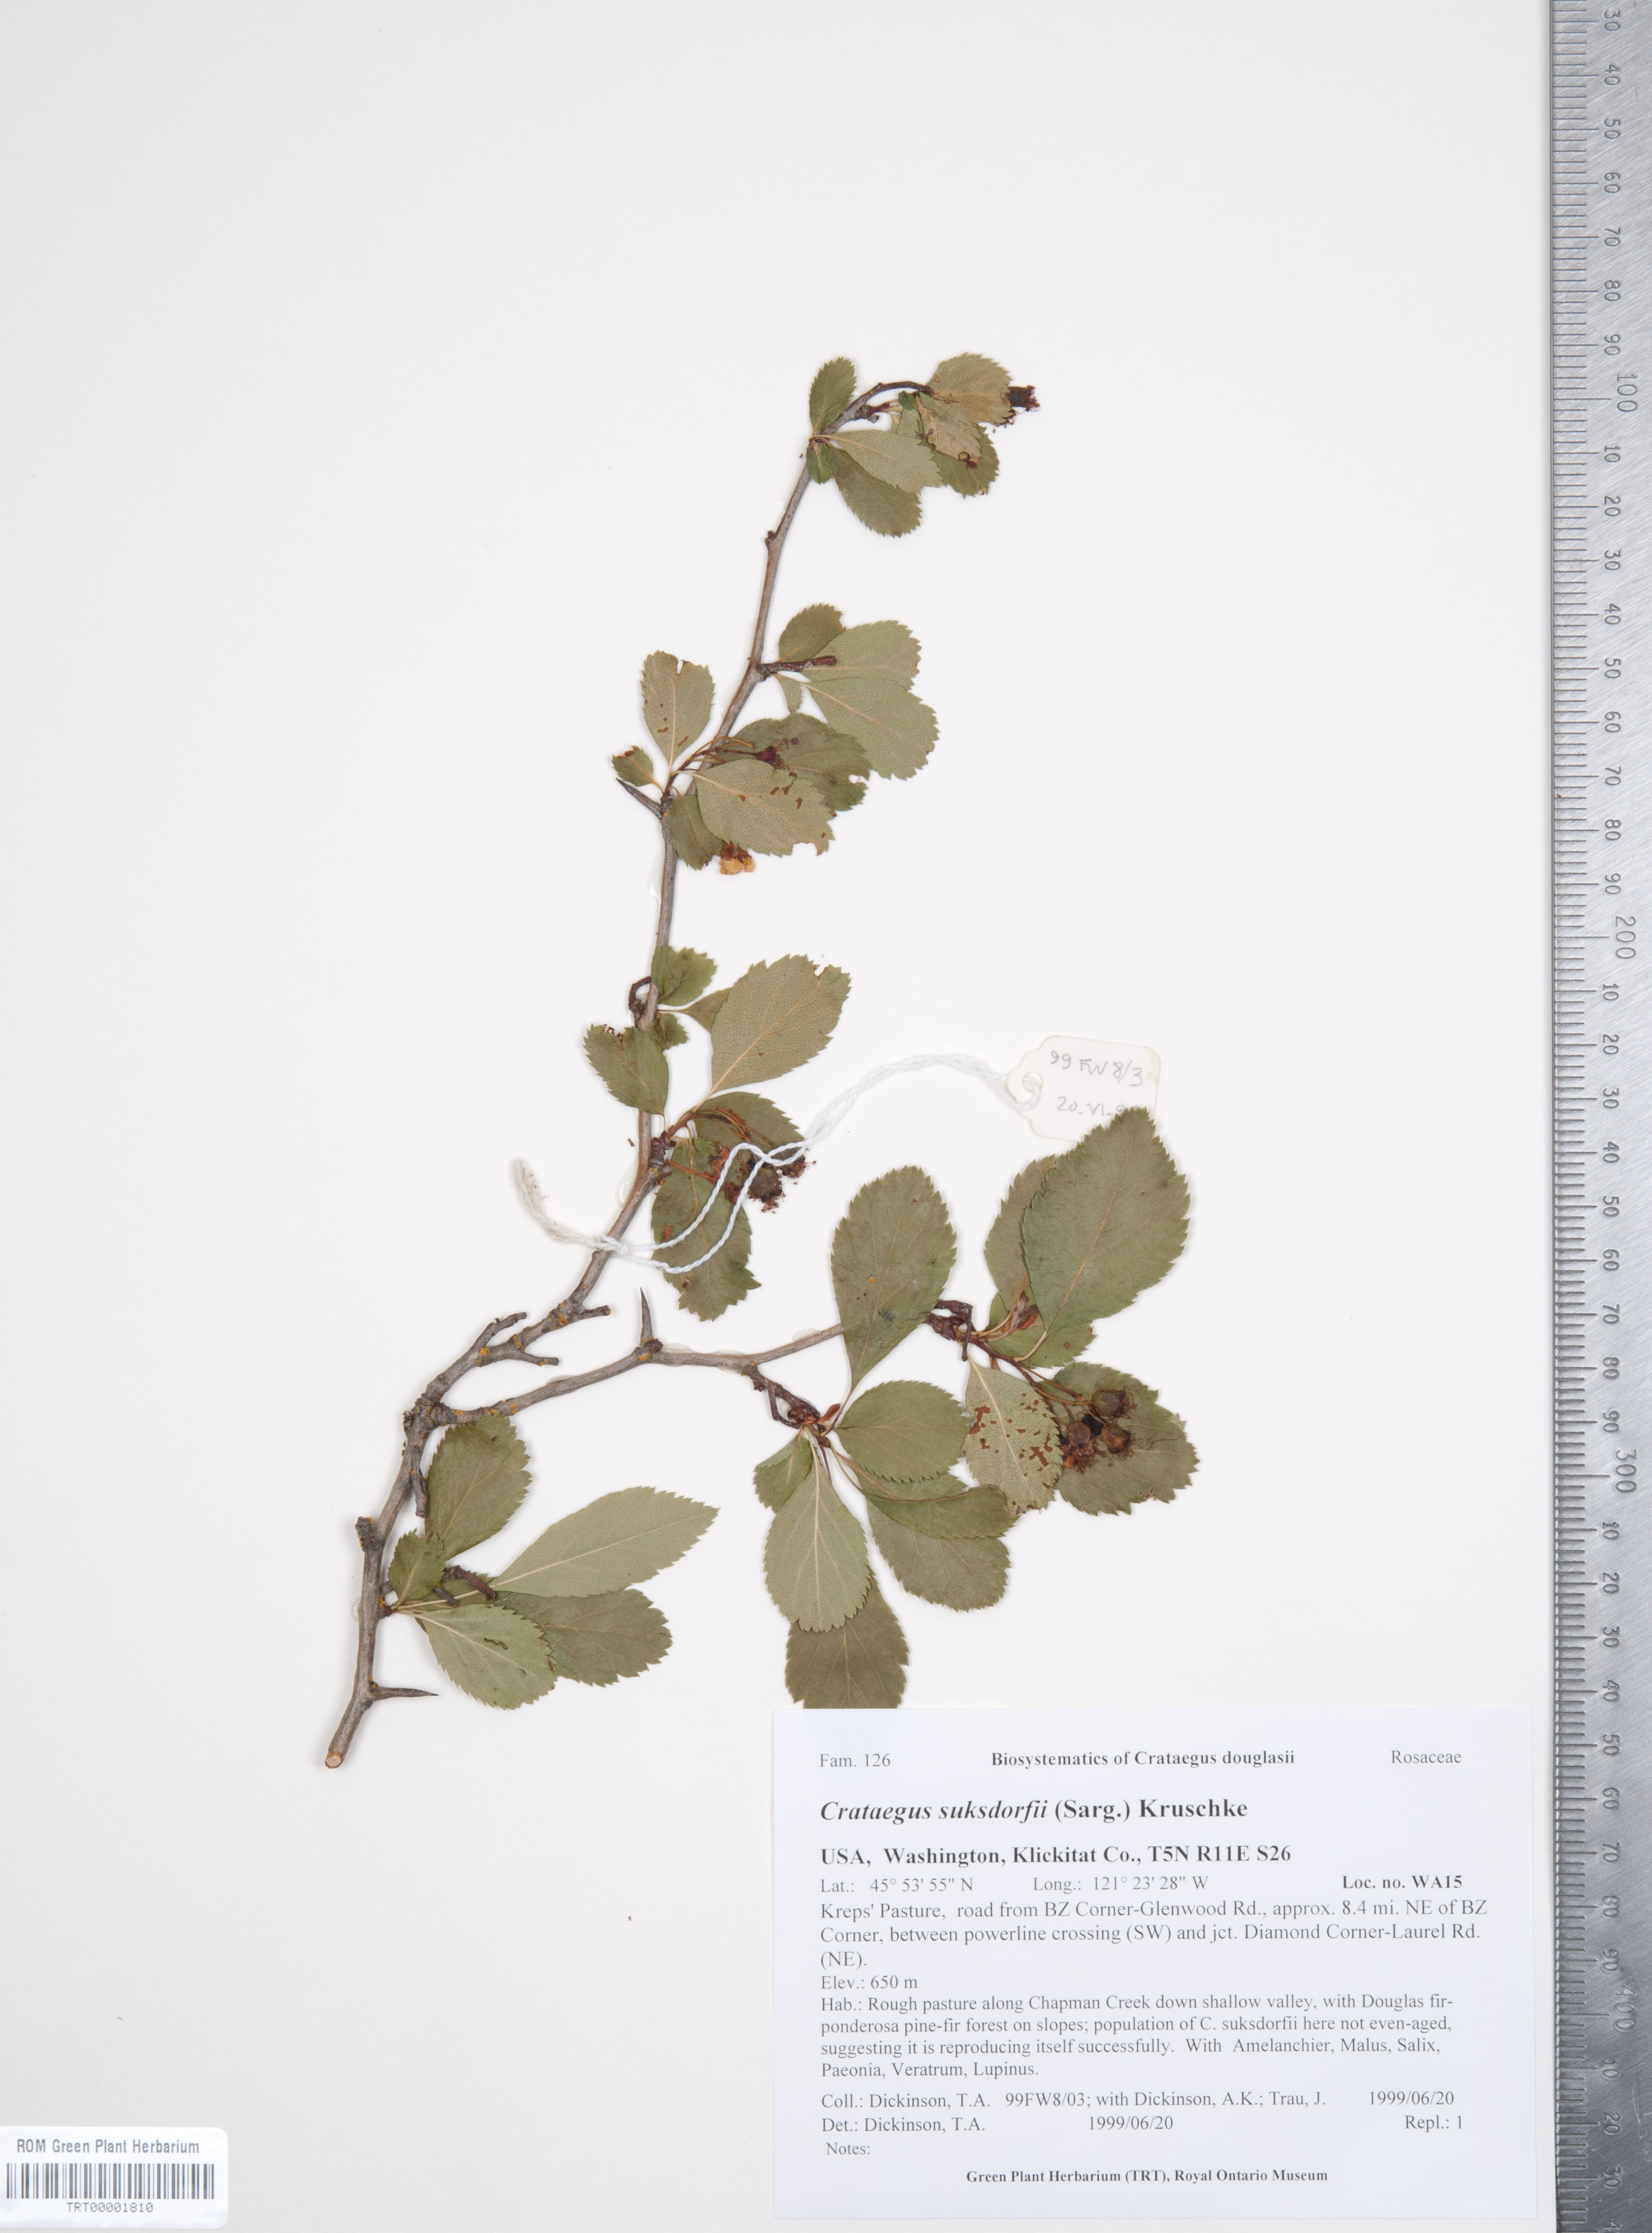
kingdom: Plantae
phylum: Tracheophyta
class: Magnoliopsida
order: Rosales
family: Rosaceae
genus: Crataegus
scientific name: Crataegus gaylussacia
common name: Huckleberry hawthorn
